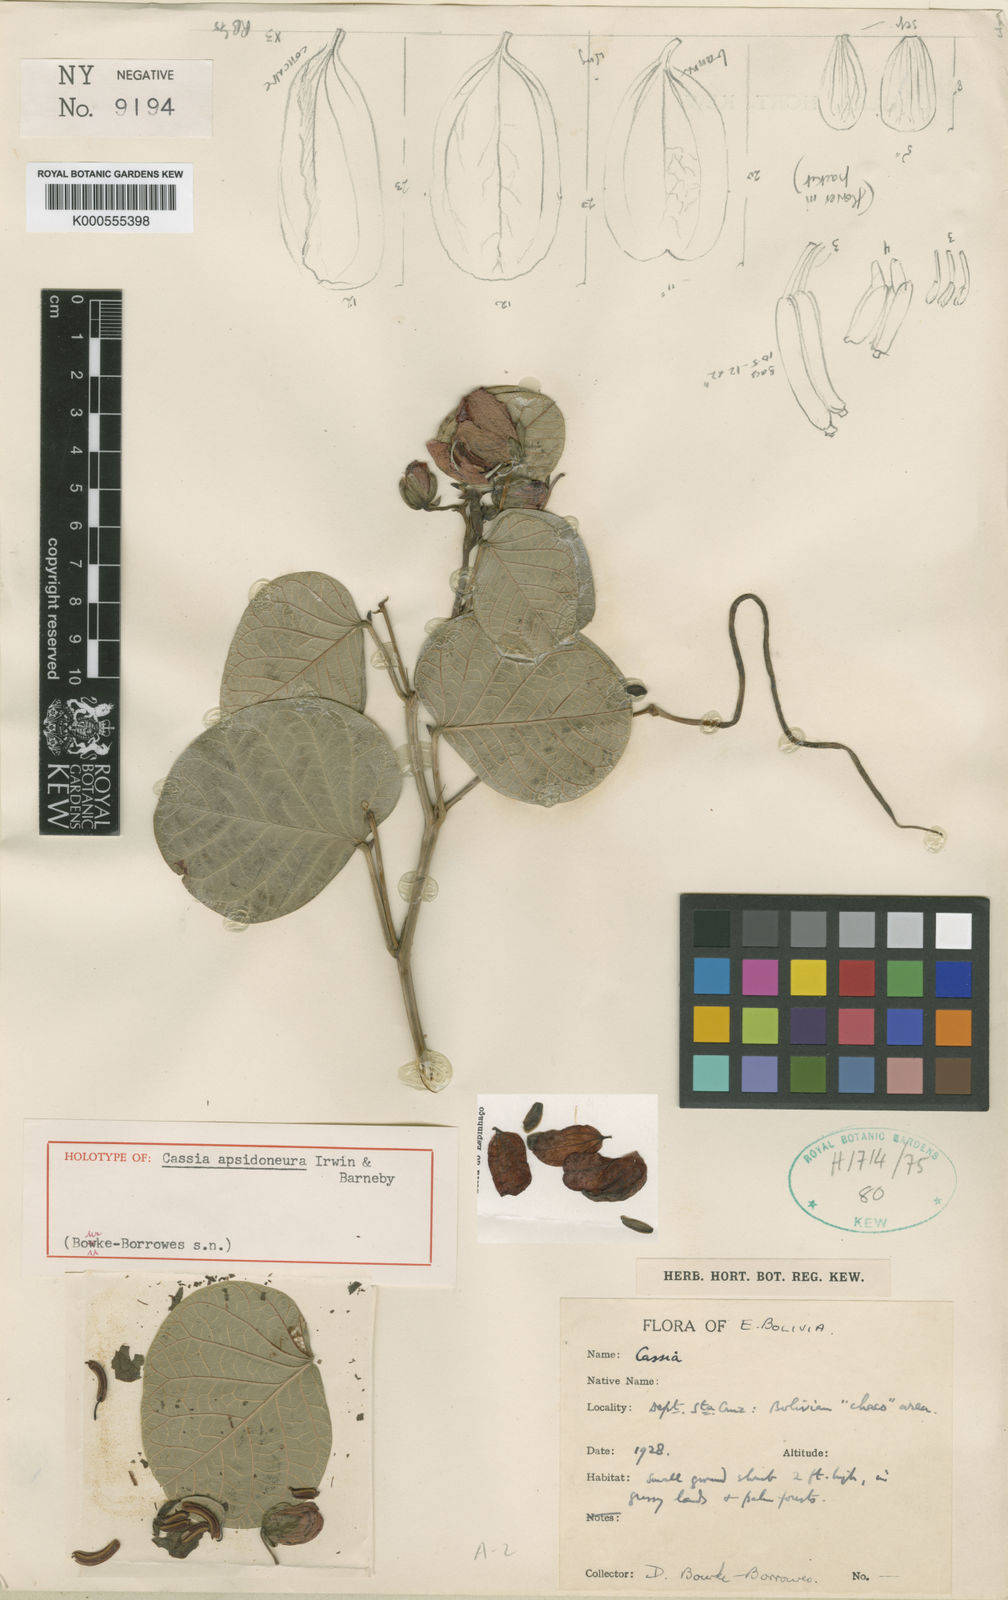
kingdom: Plantae
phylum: Tracheophyta
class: Magnoliopsida
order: Fabales
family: Fabaceae
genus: Senna
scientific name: Senna apsidoneura
